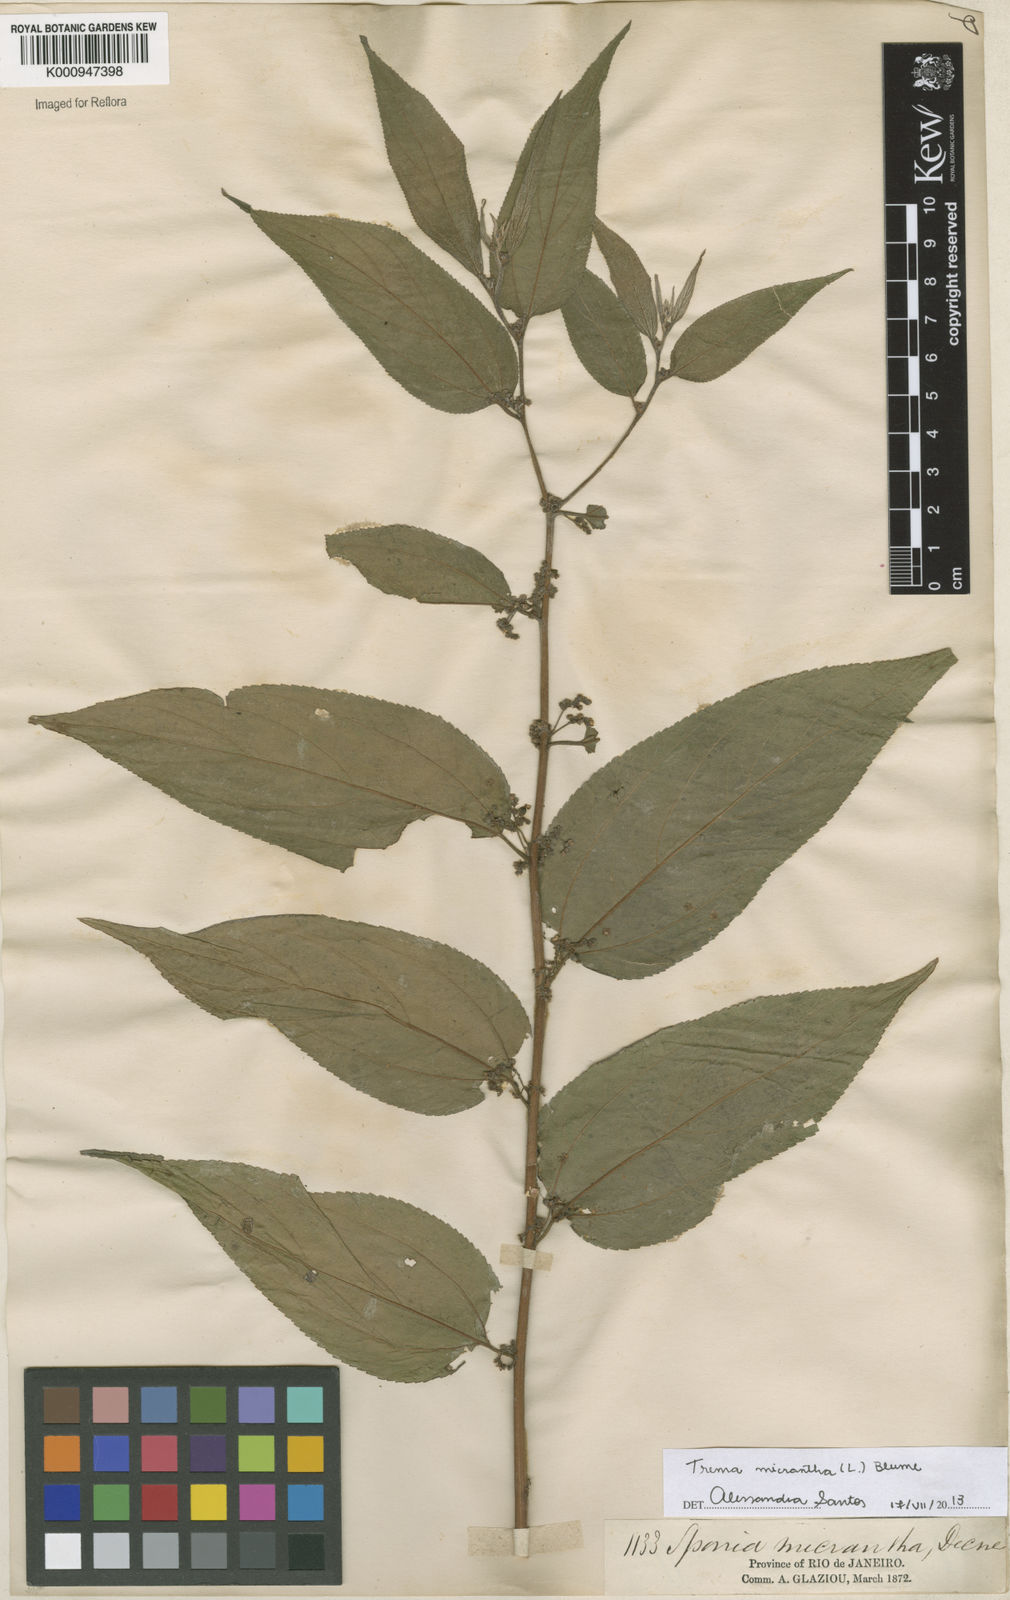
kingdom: Plantae
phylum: Tracheophyta
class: Magnoliopsida
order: Rosales
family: Cannabaceae
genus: Trema
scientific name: Trema micranthum
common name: Jamaican nettletree
